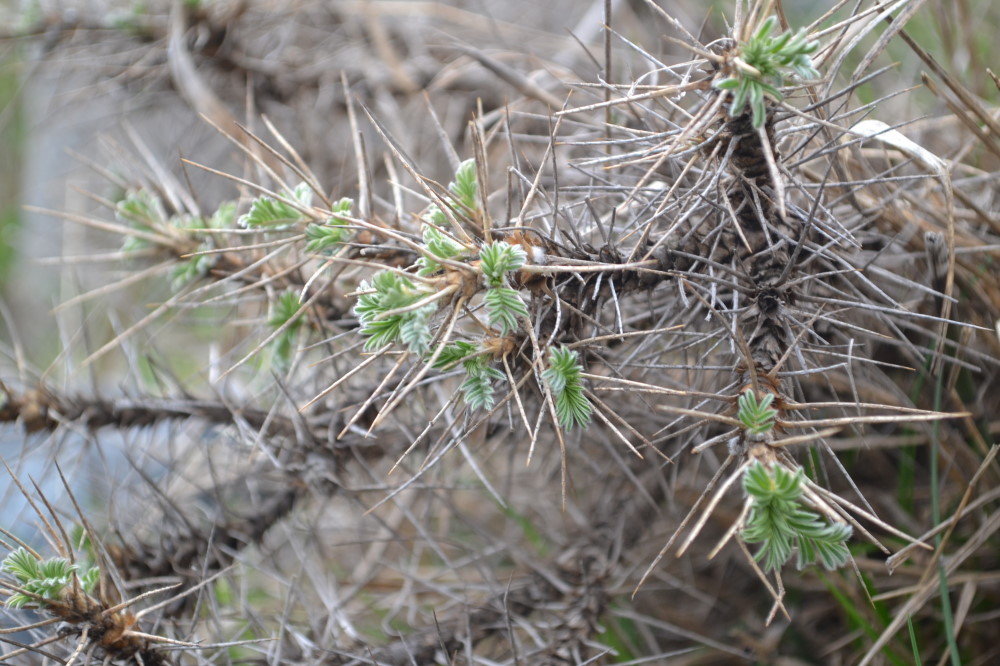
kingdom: Plantae
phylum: Tracheophyta
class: Magnoliopsida
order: Fabales
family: Fabaceae
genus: Astragalus
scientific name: Astragalus arnacantha
